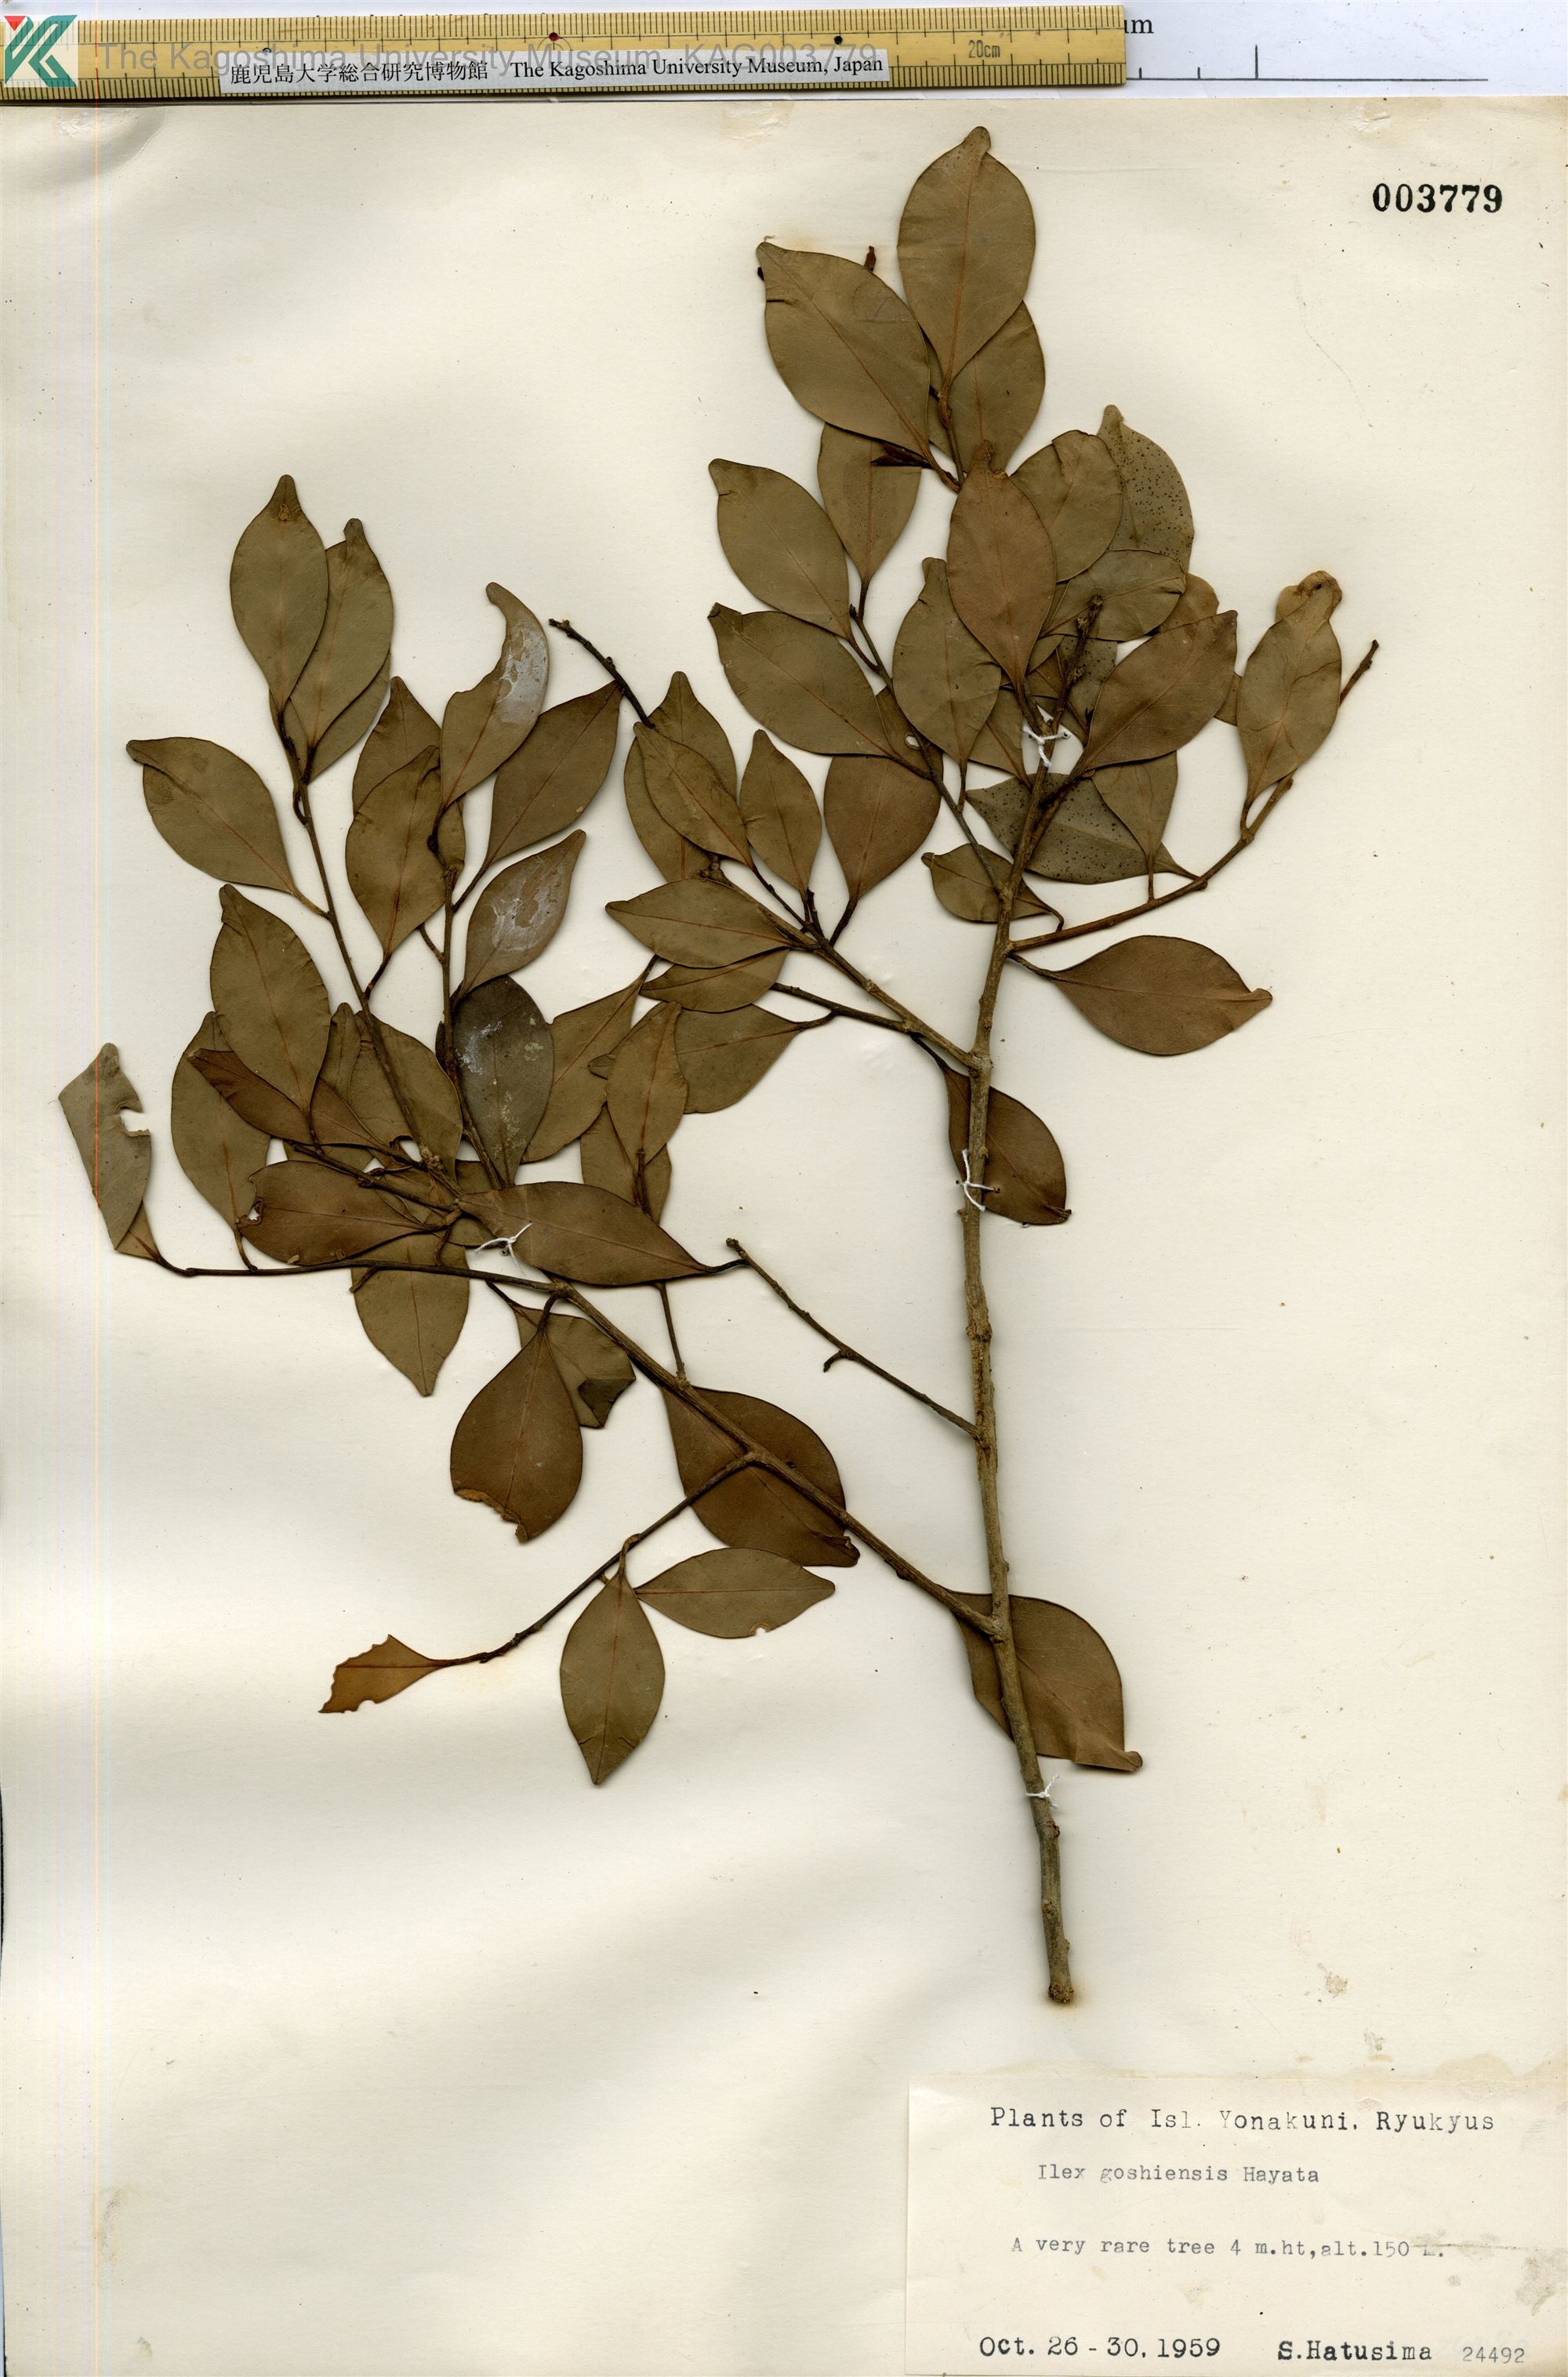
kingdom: Plantae
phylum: Tracheophyta
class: Magnoliopsida
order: Aquifoliales
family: Aquifoliaceae
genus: Ilex
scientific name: Ilex goshiensis
